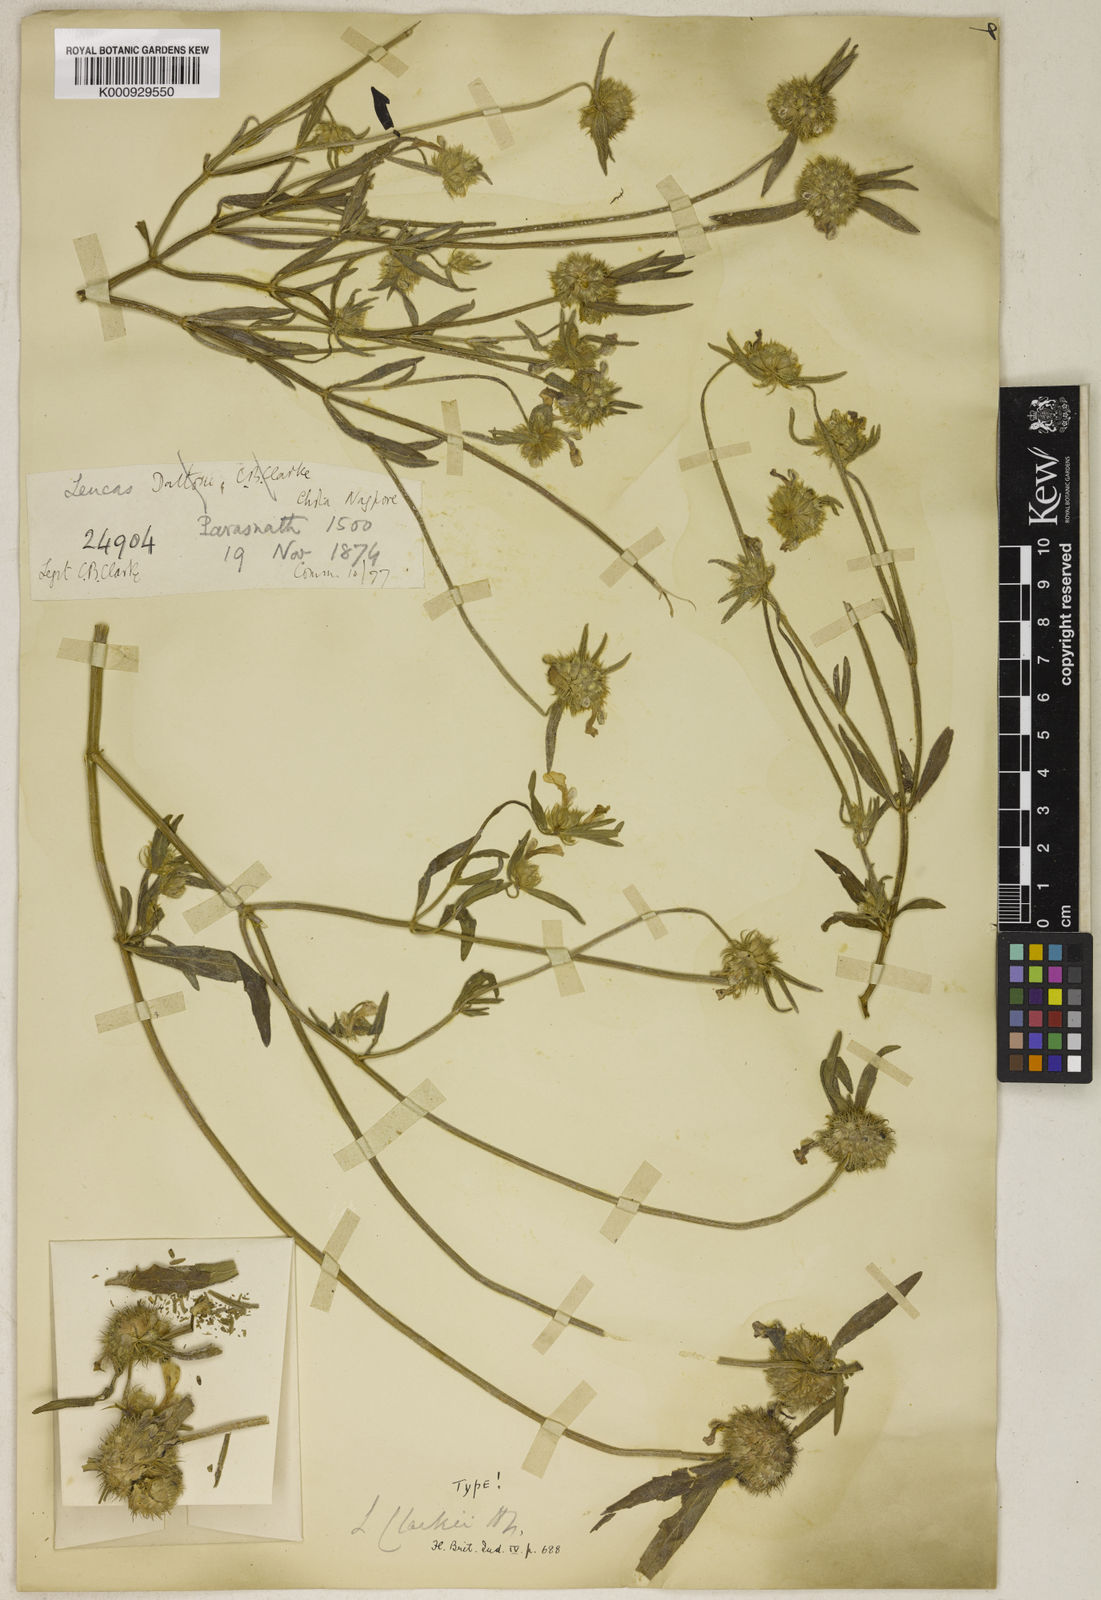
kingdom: Plantae
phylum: Tracheophyta
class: Magnoliopsida
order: Lamiales
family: Lamiaceae
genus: Leucas
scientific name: Leucas clarkei
